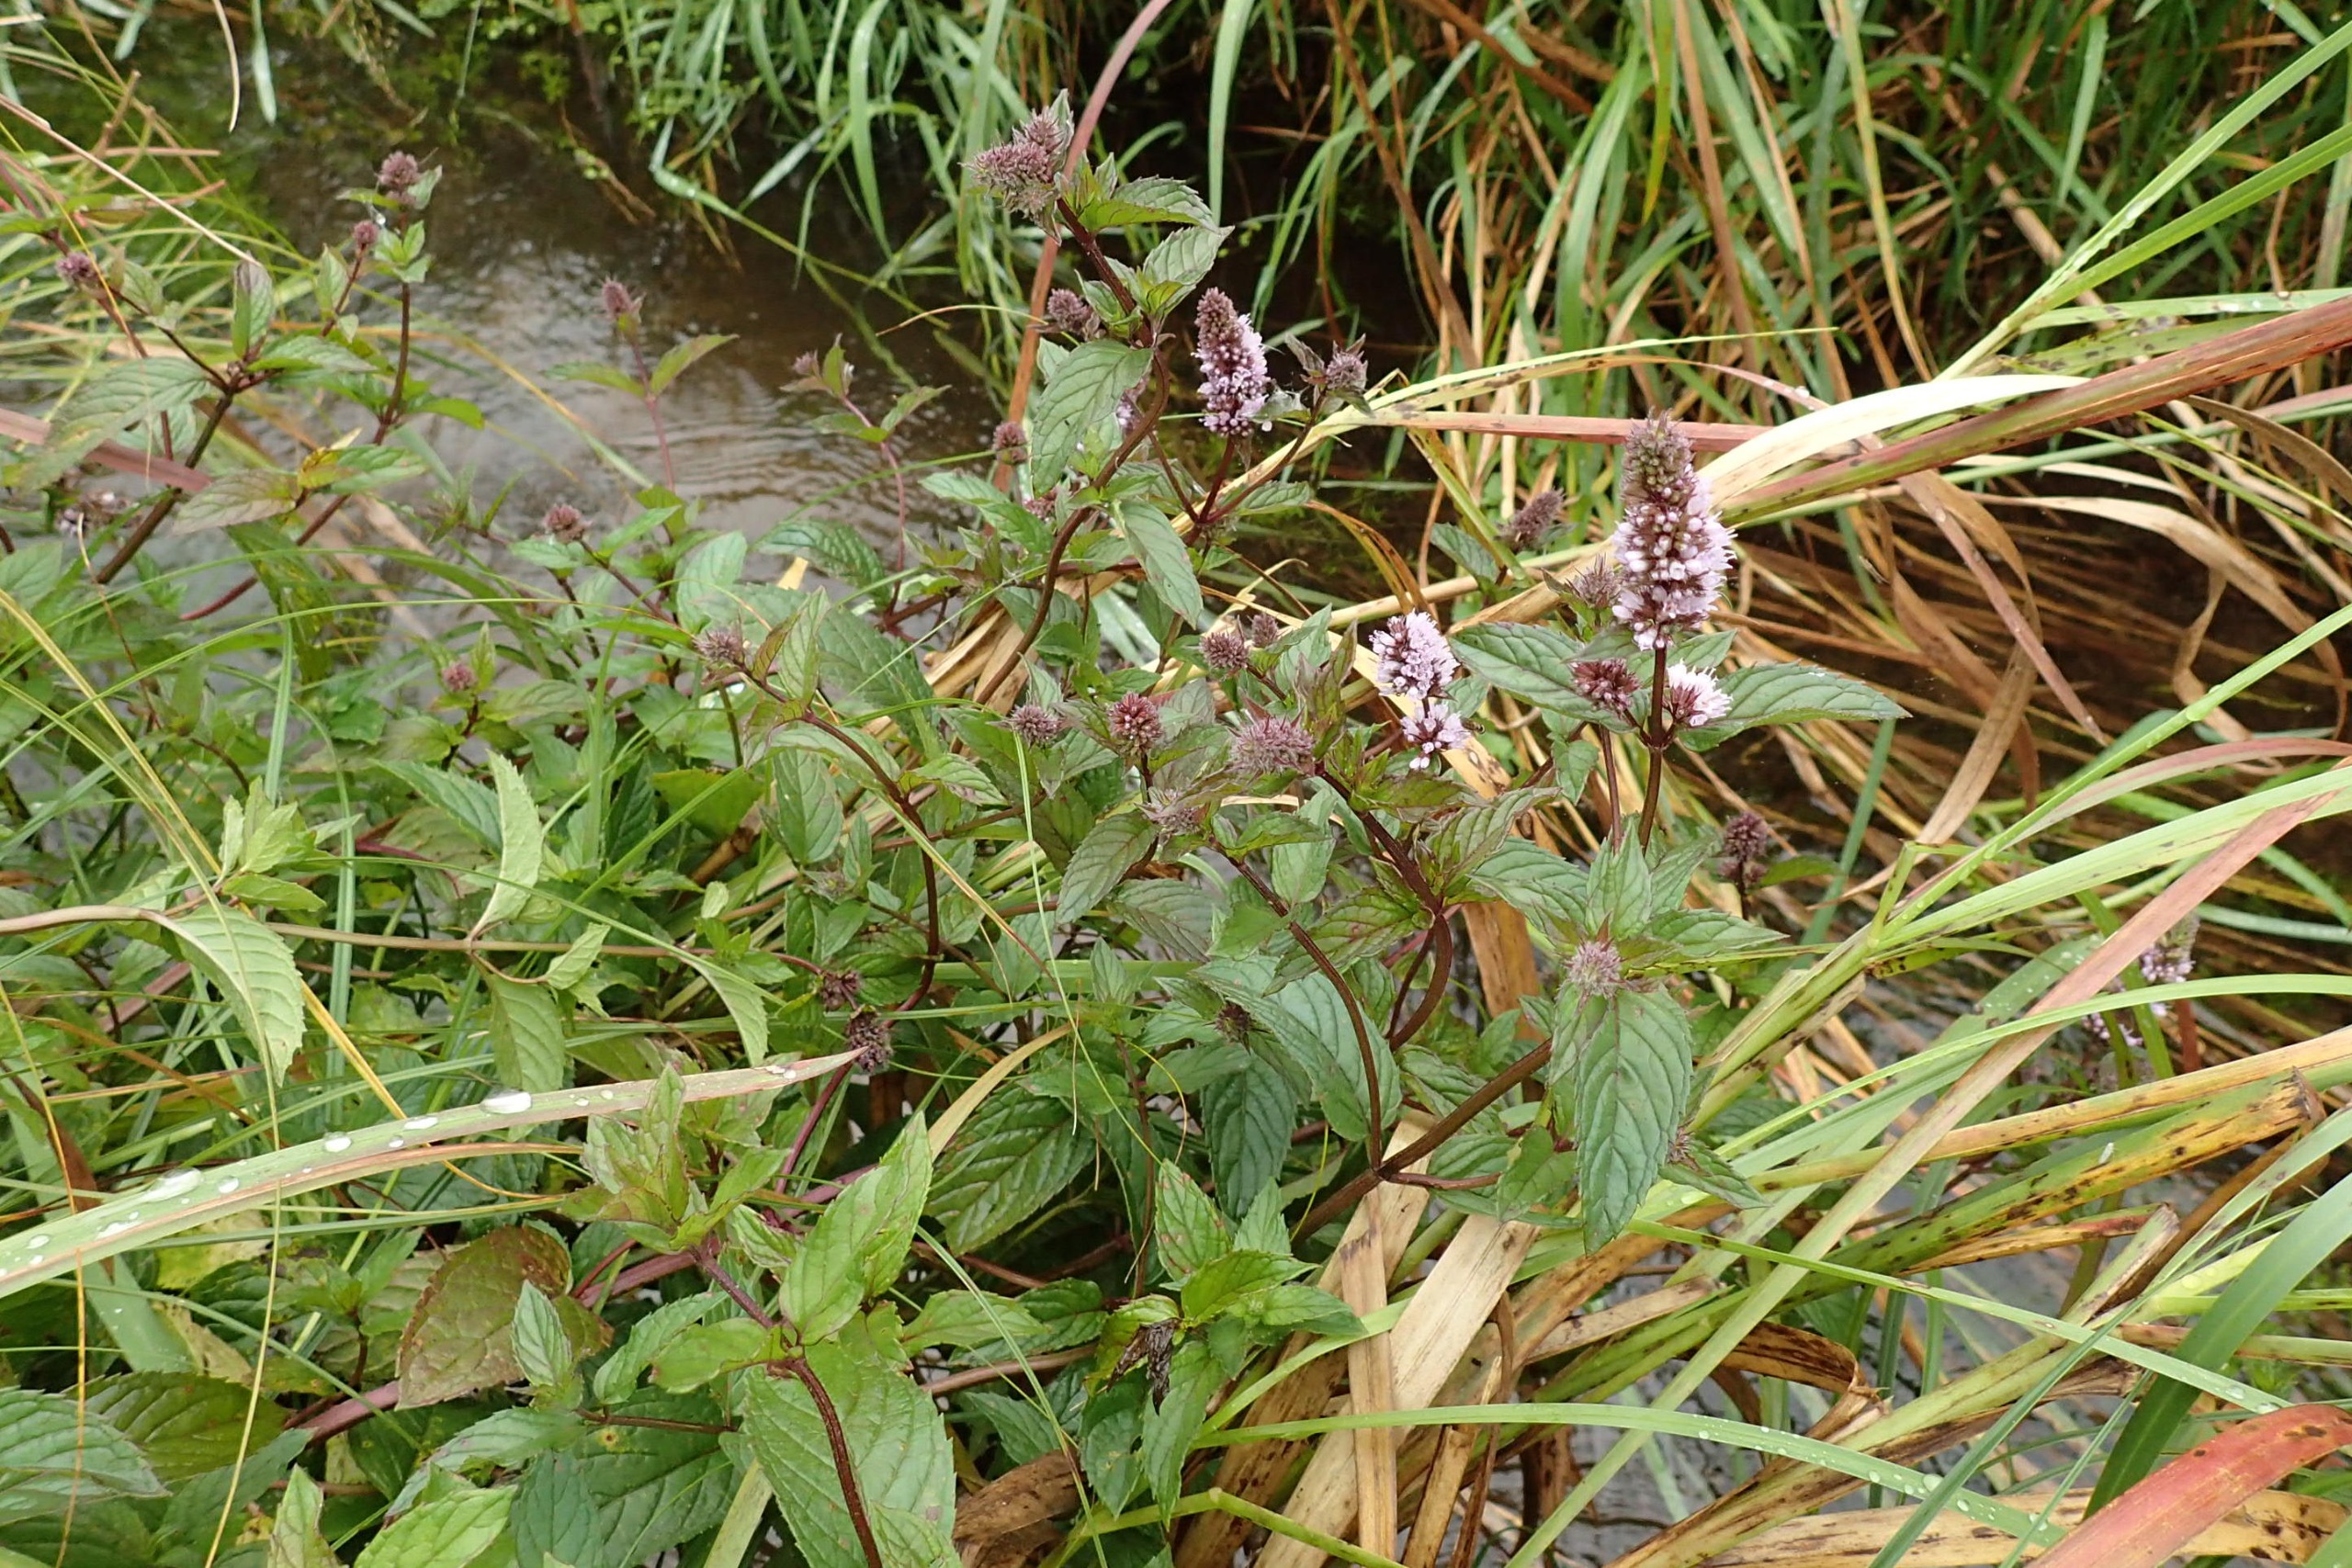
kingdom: Plantae
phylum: Tracheophyta
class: Magnoliopsida
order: Lamiales
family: Lamiaceae
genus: Mentha
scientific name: Mentha piperita
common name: Peber-mynte
